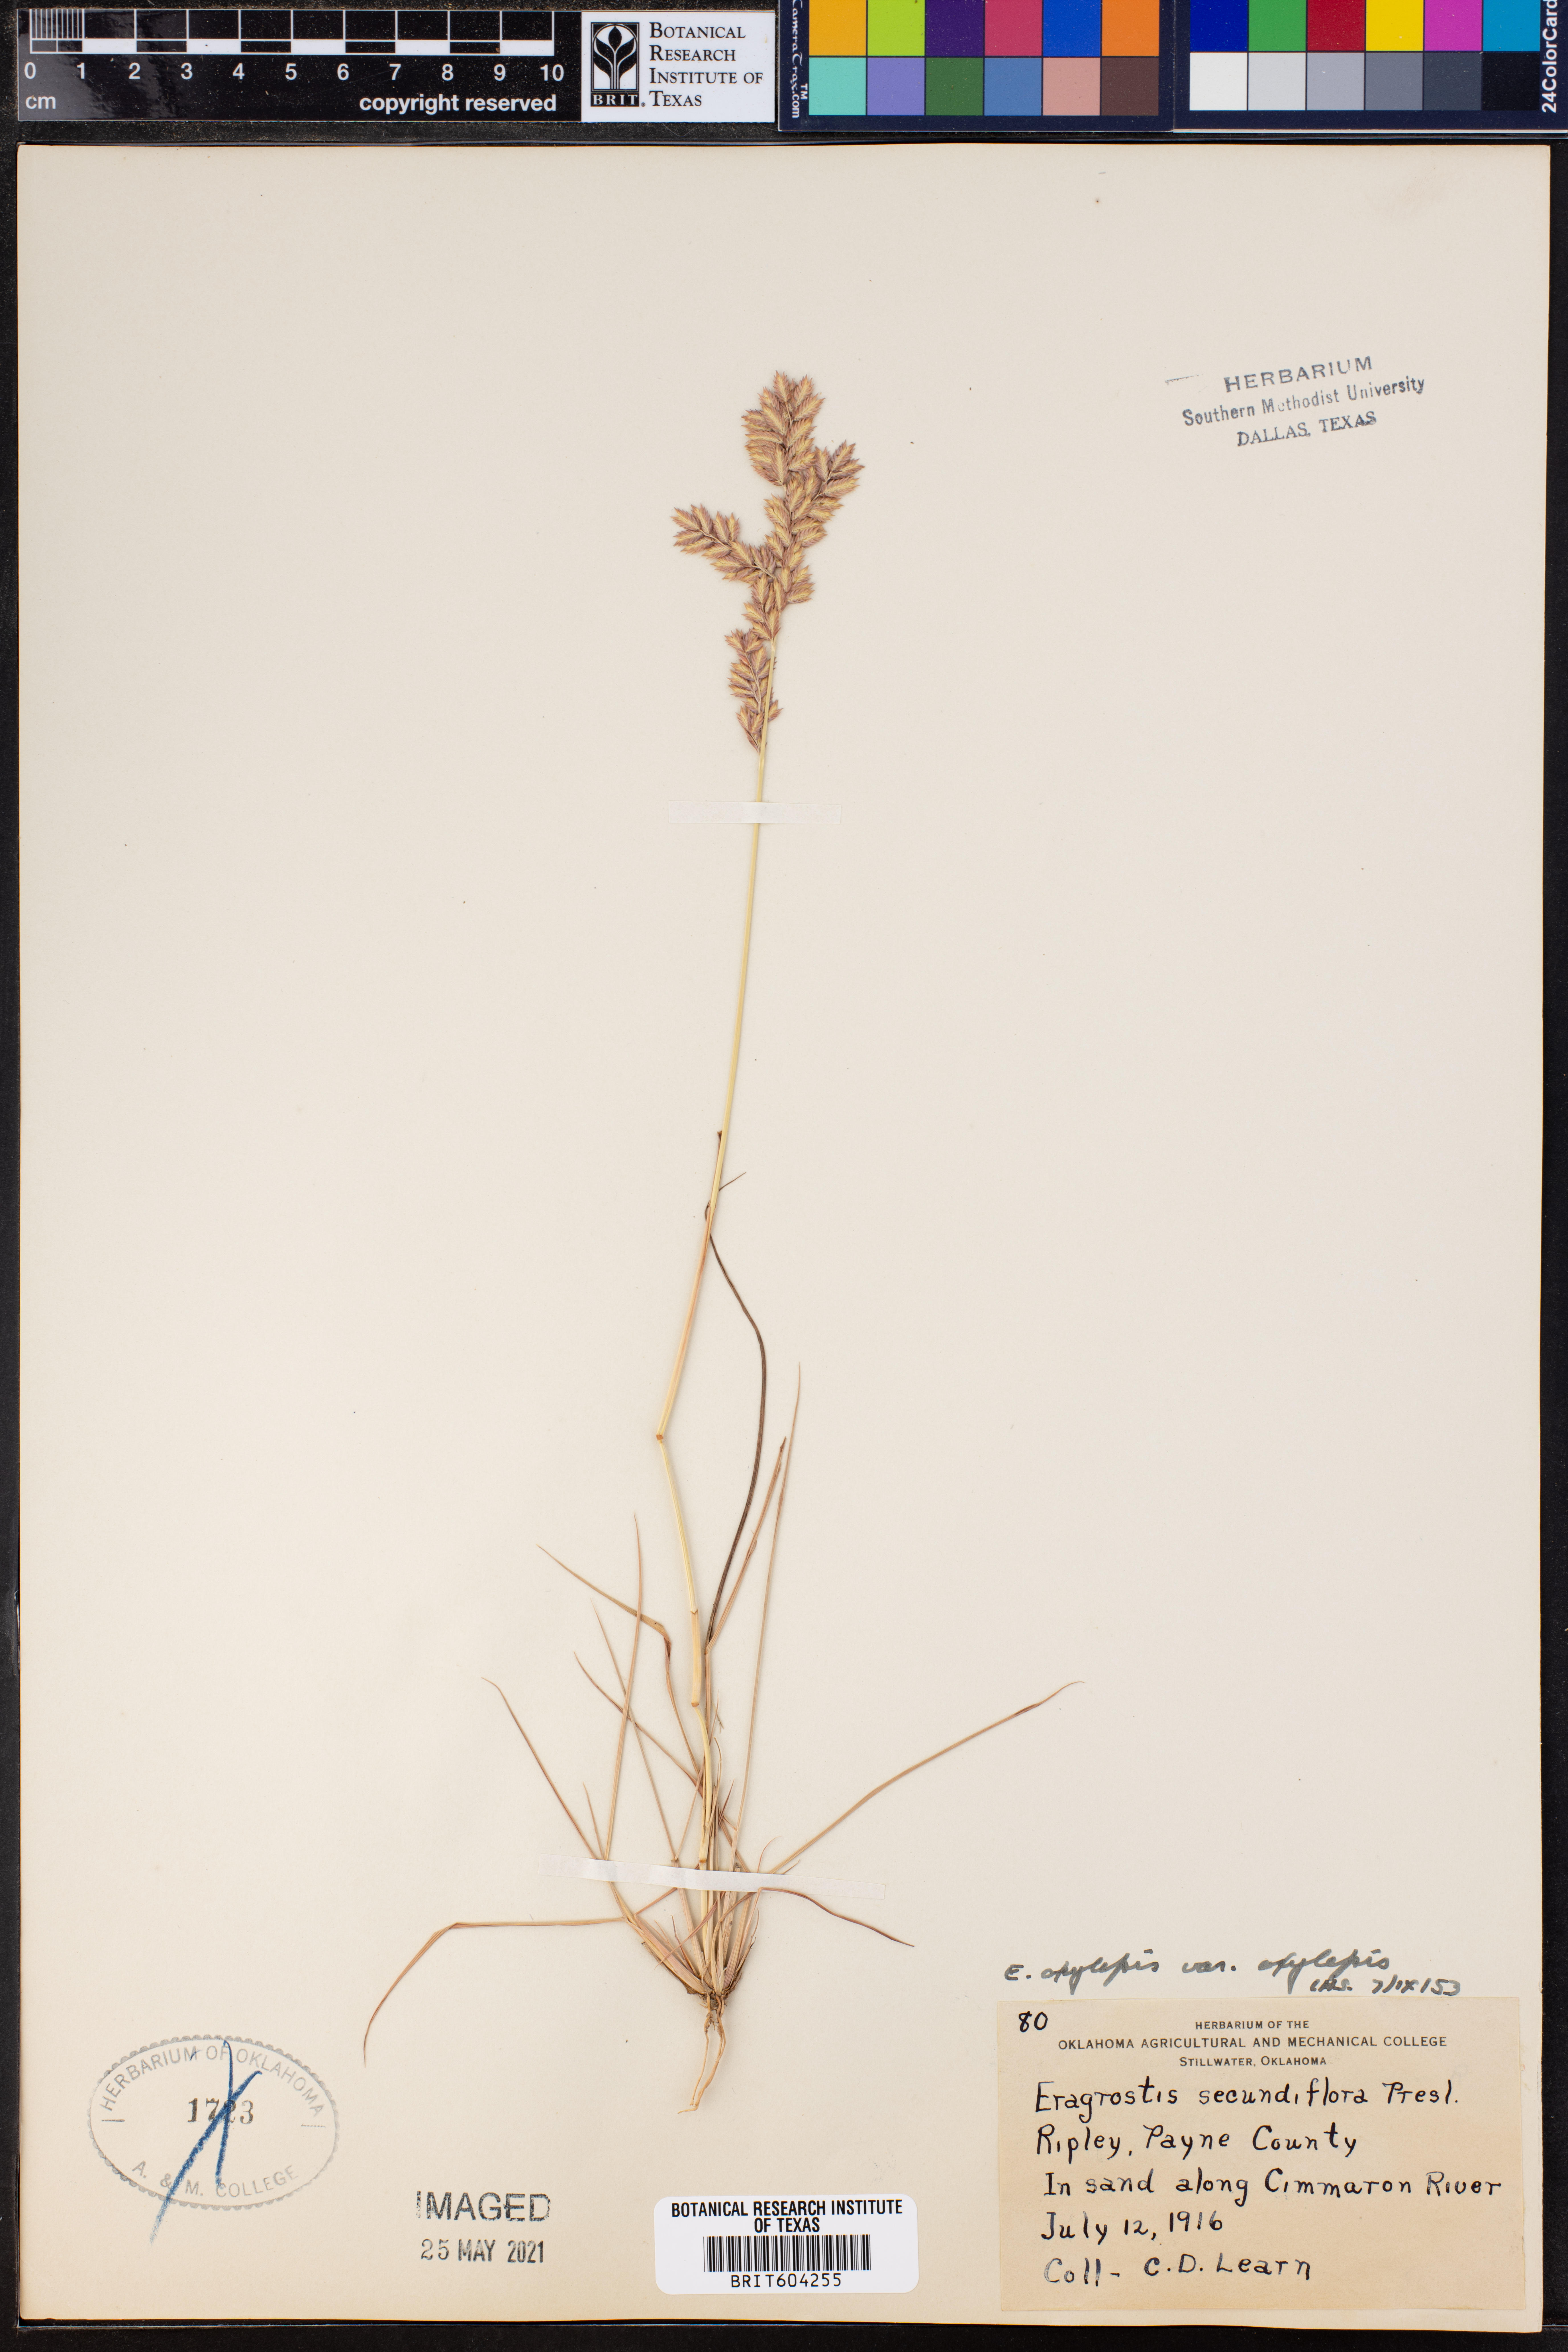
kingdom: Plantae
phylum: Tracheophyta
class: Liliopsida
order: Poales
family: Poaceae
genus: Eragrostis
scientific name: Eragrostis secundiflora
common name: Red love grass
